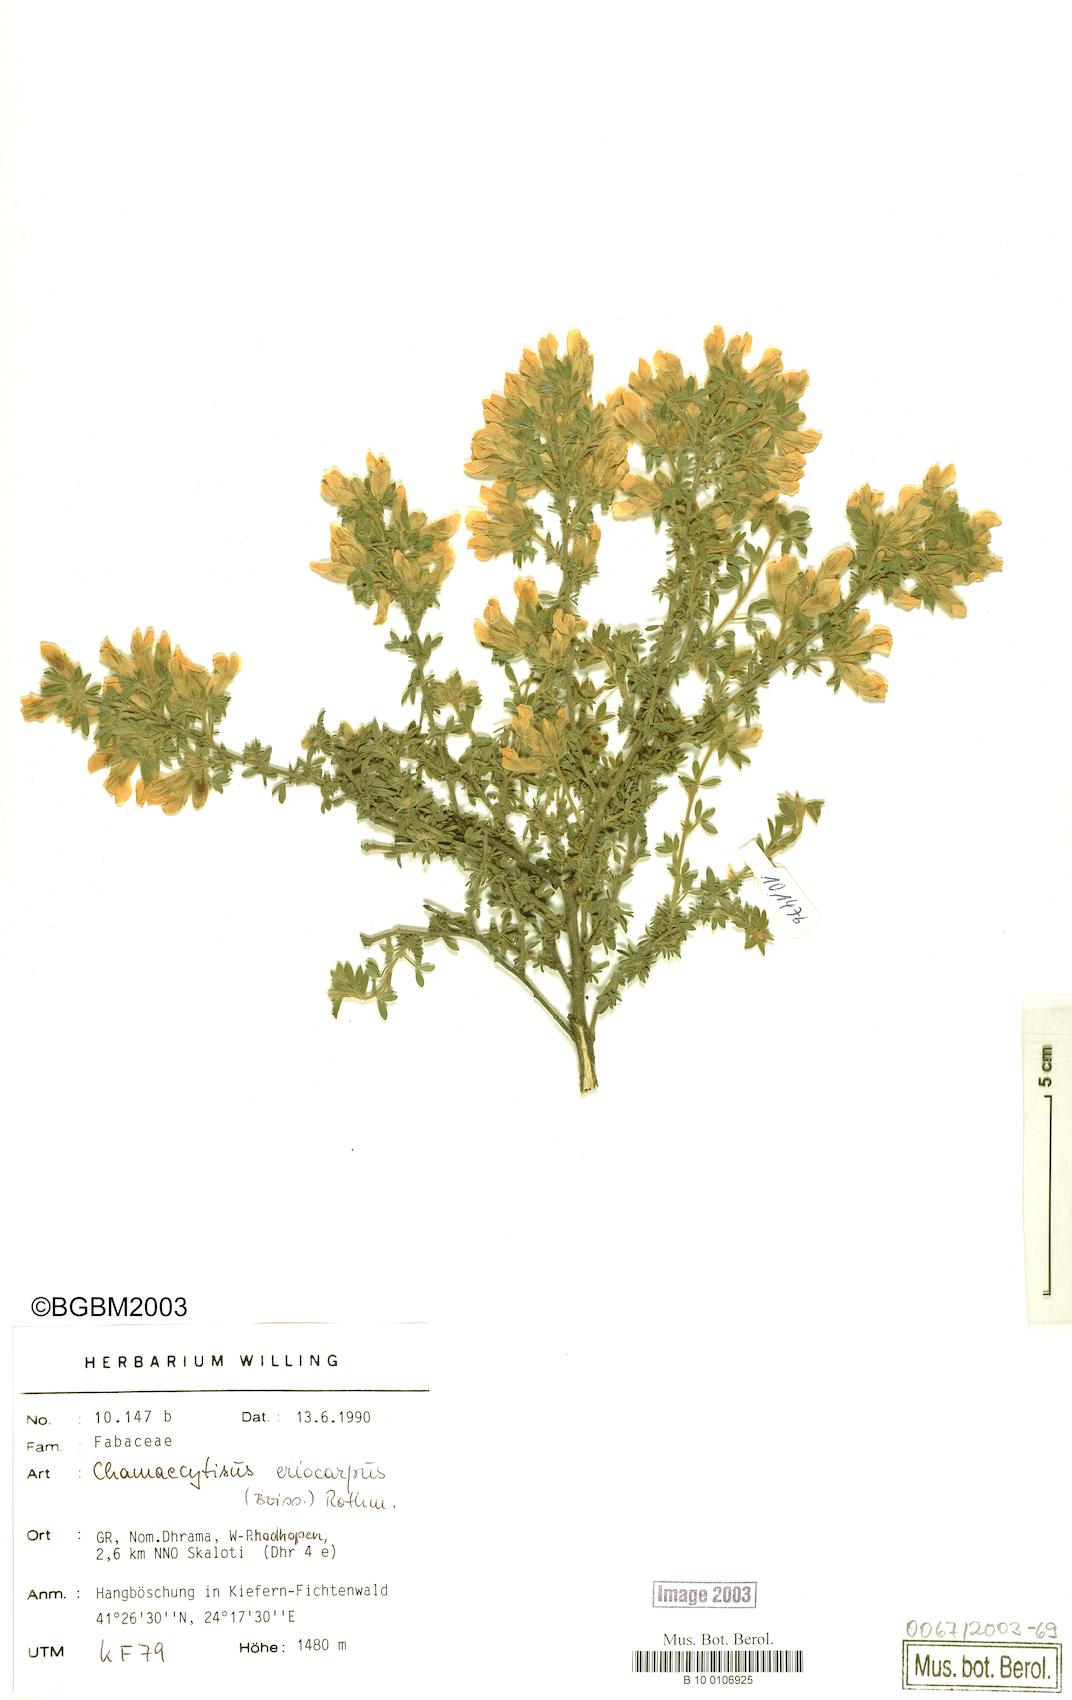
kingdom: Plantae
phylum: Tracheophyta
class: Magnoliopsida
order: Fabales
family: Fabaceae
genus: Chamaecytisus
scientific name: Chamaecytisus eriocarpus
